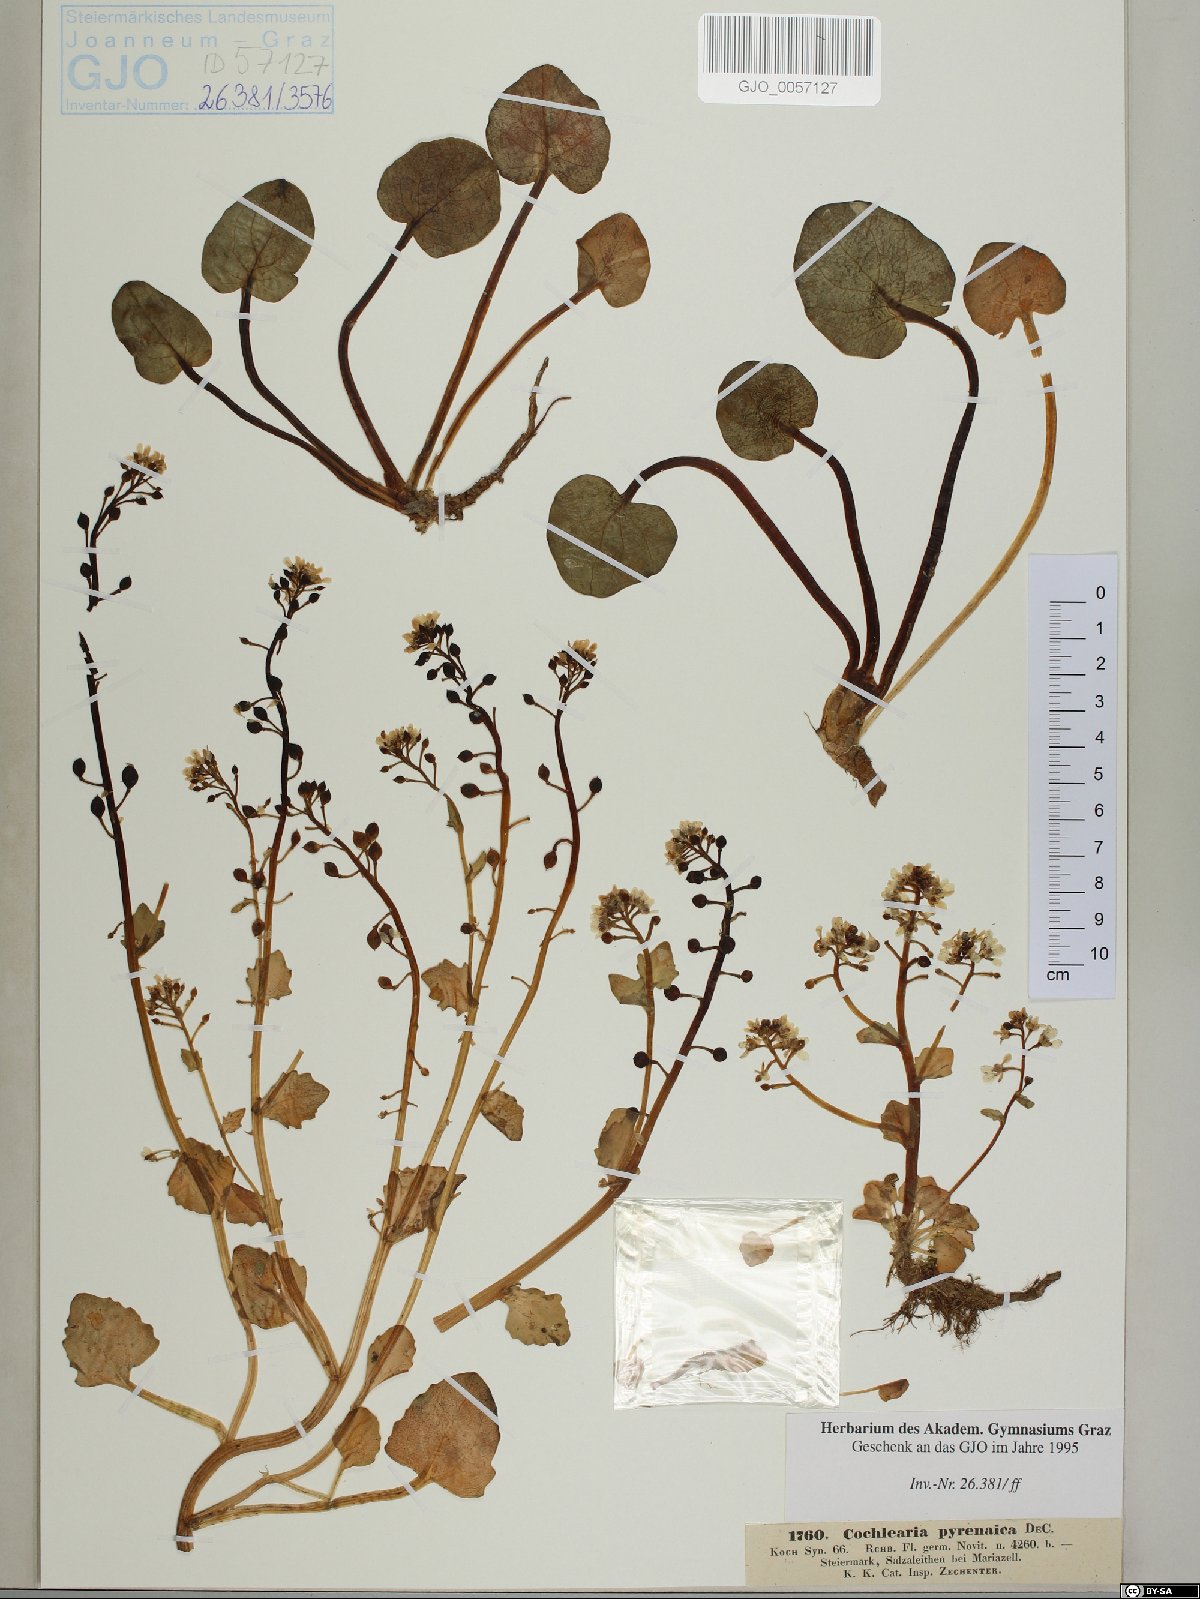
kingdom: Plantae
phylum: Tracheophyta
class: Magnoliopsida
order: Brassicales
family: Brassicaceae
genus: Cochlearia
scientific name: Cochlearia pyrenaica
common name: Upland scurvy-grass
